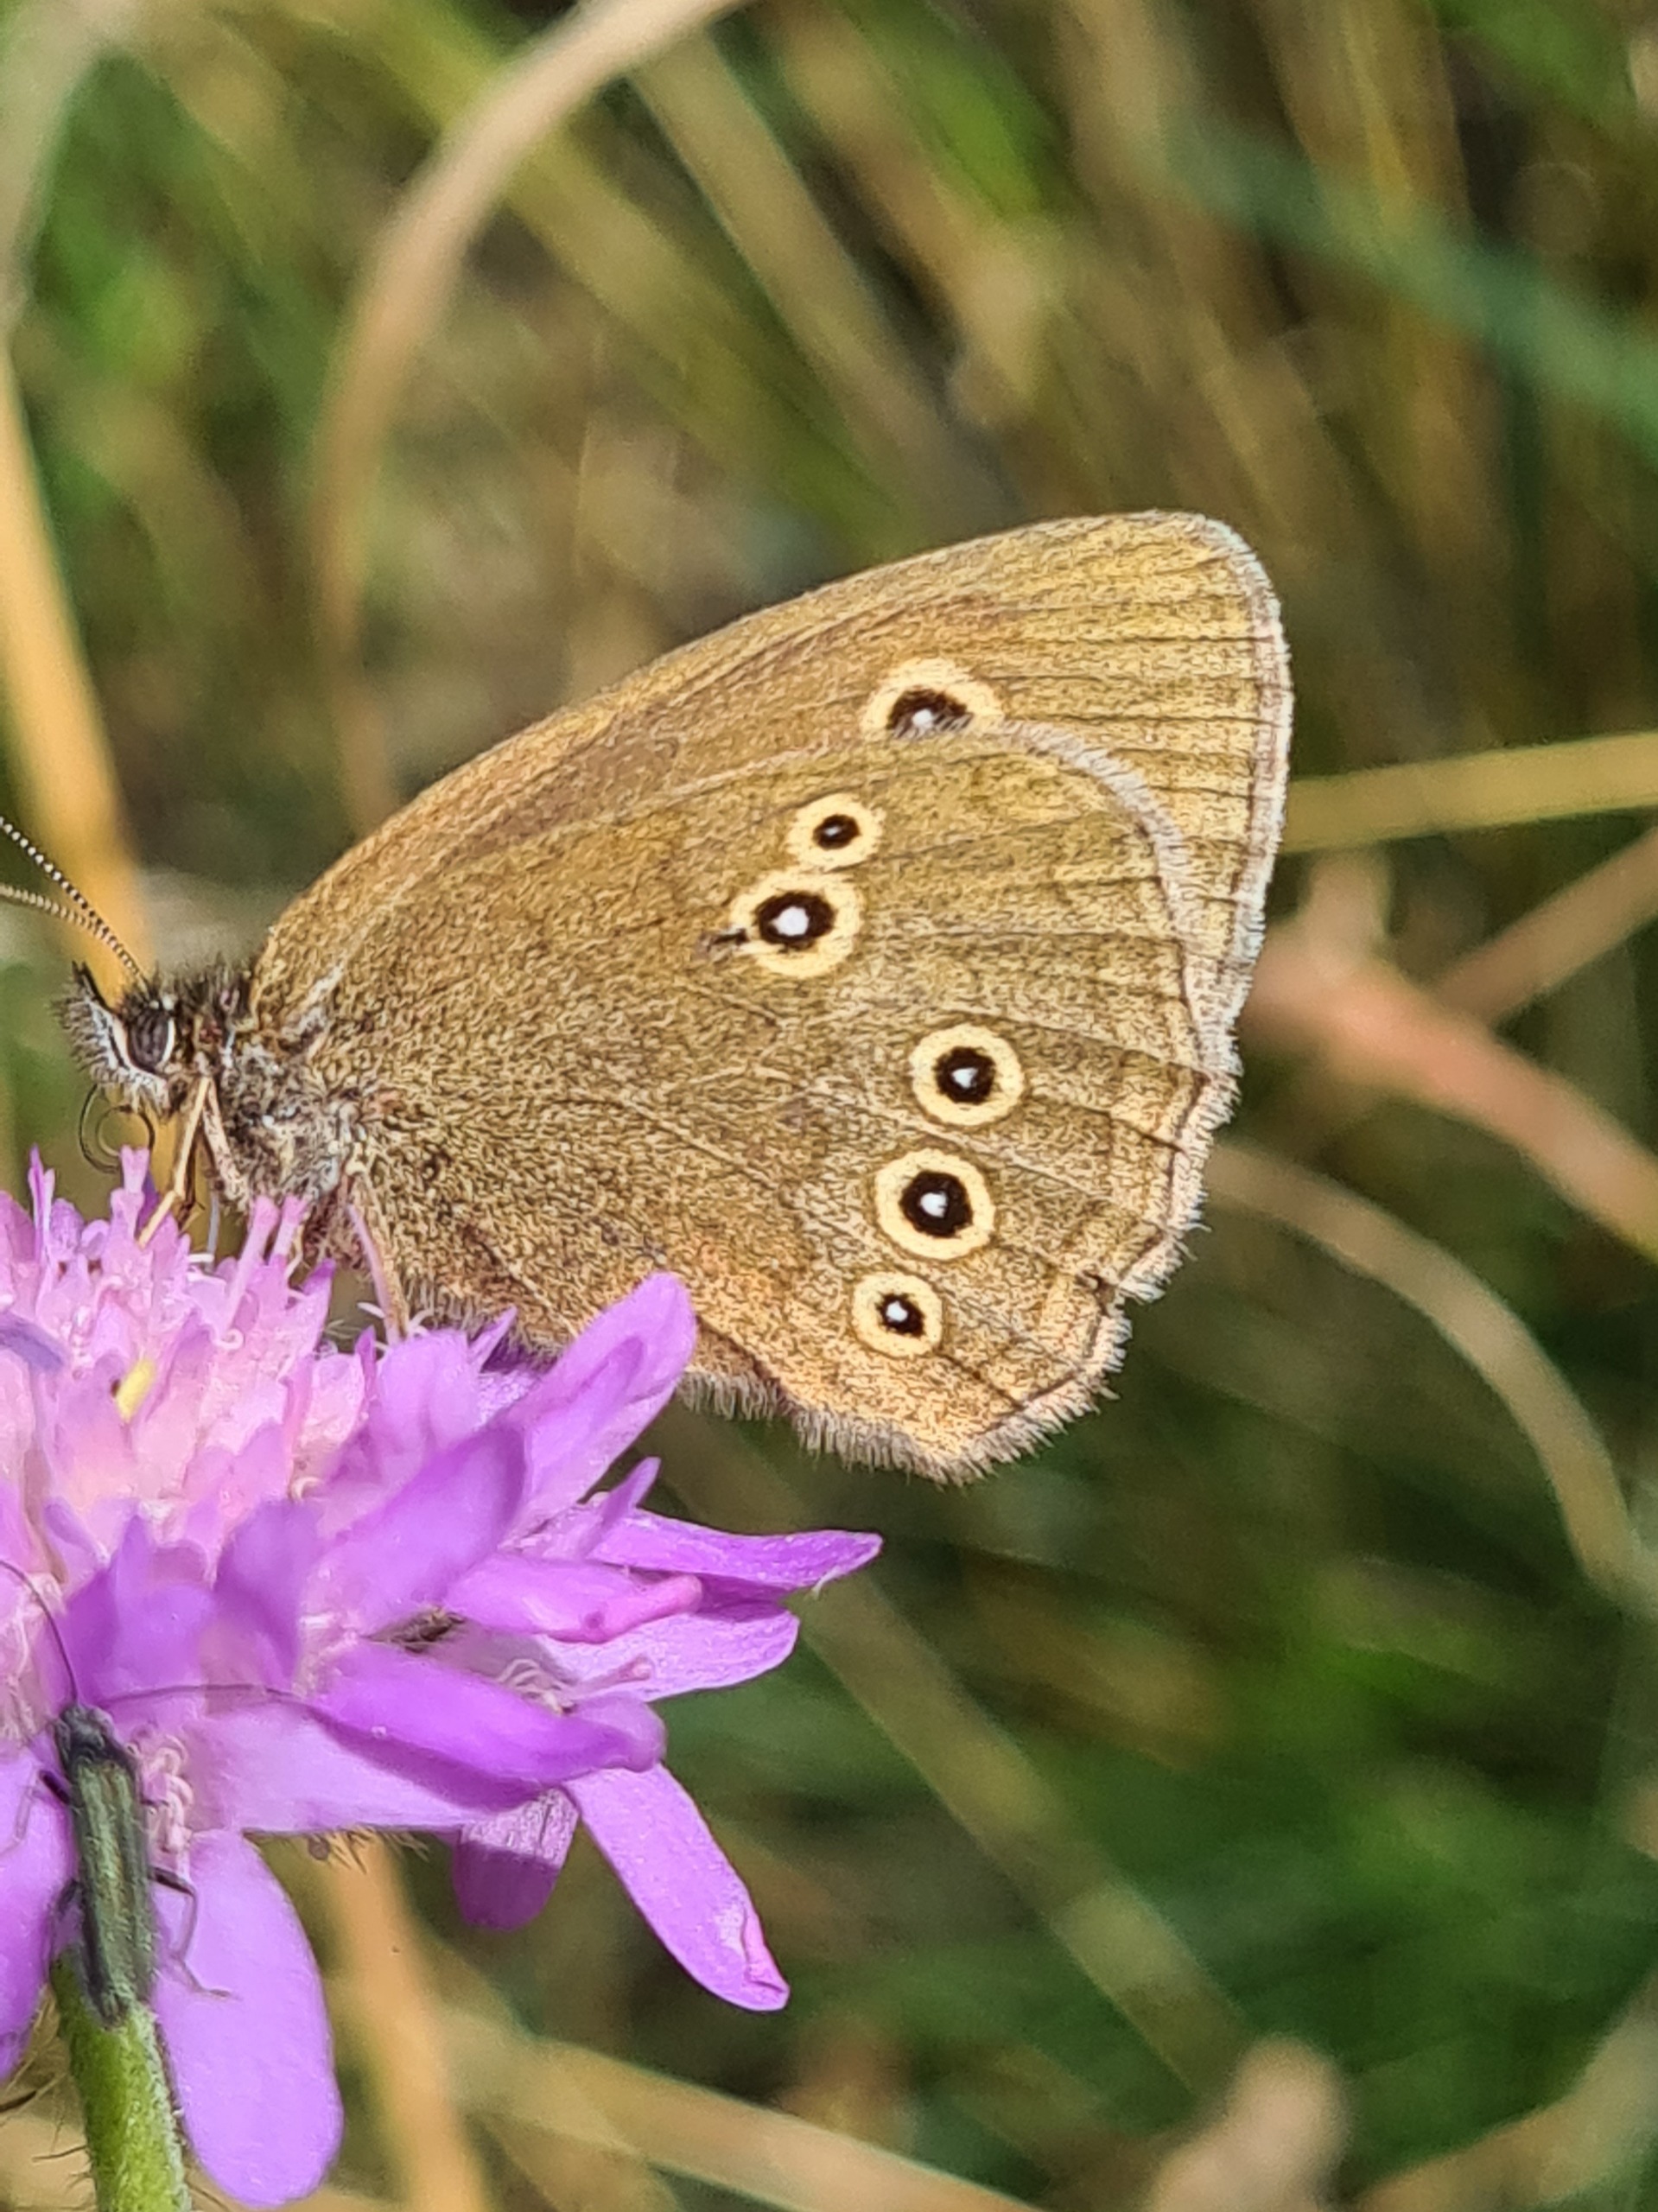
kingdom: Animalia
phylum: Arthropoda
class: Insecta
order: Lepidoptera
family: Nymphalidae
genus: Aphantopus
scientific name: Aphantopus hyperantus
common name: Engrandøje
